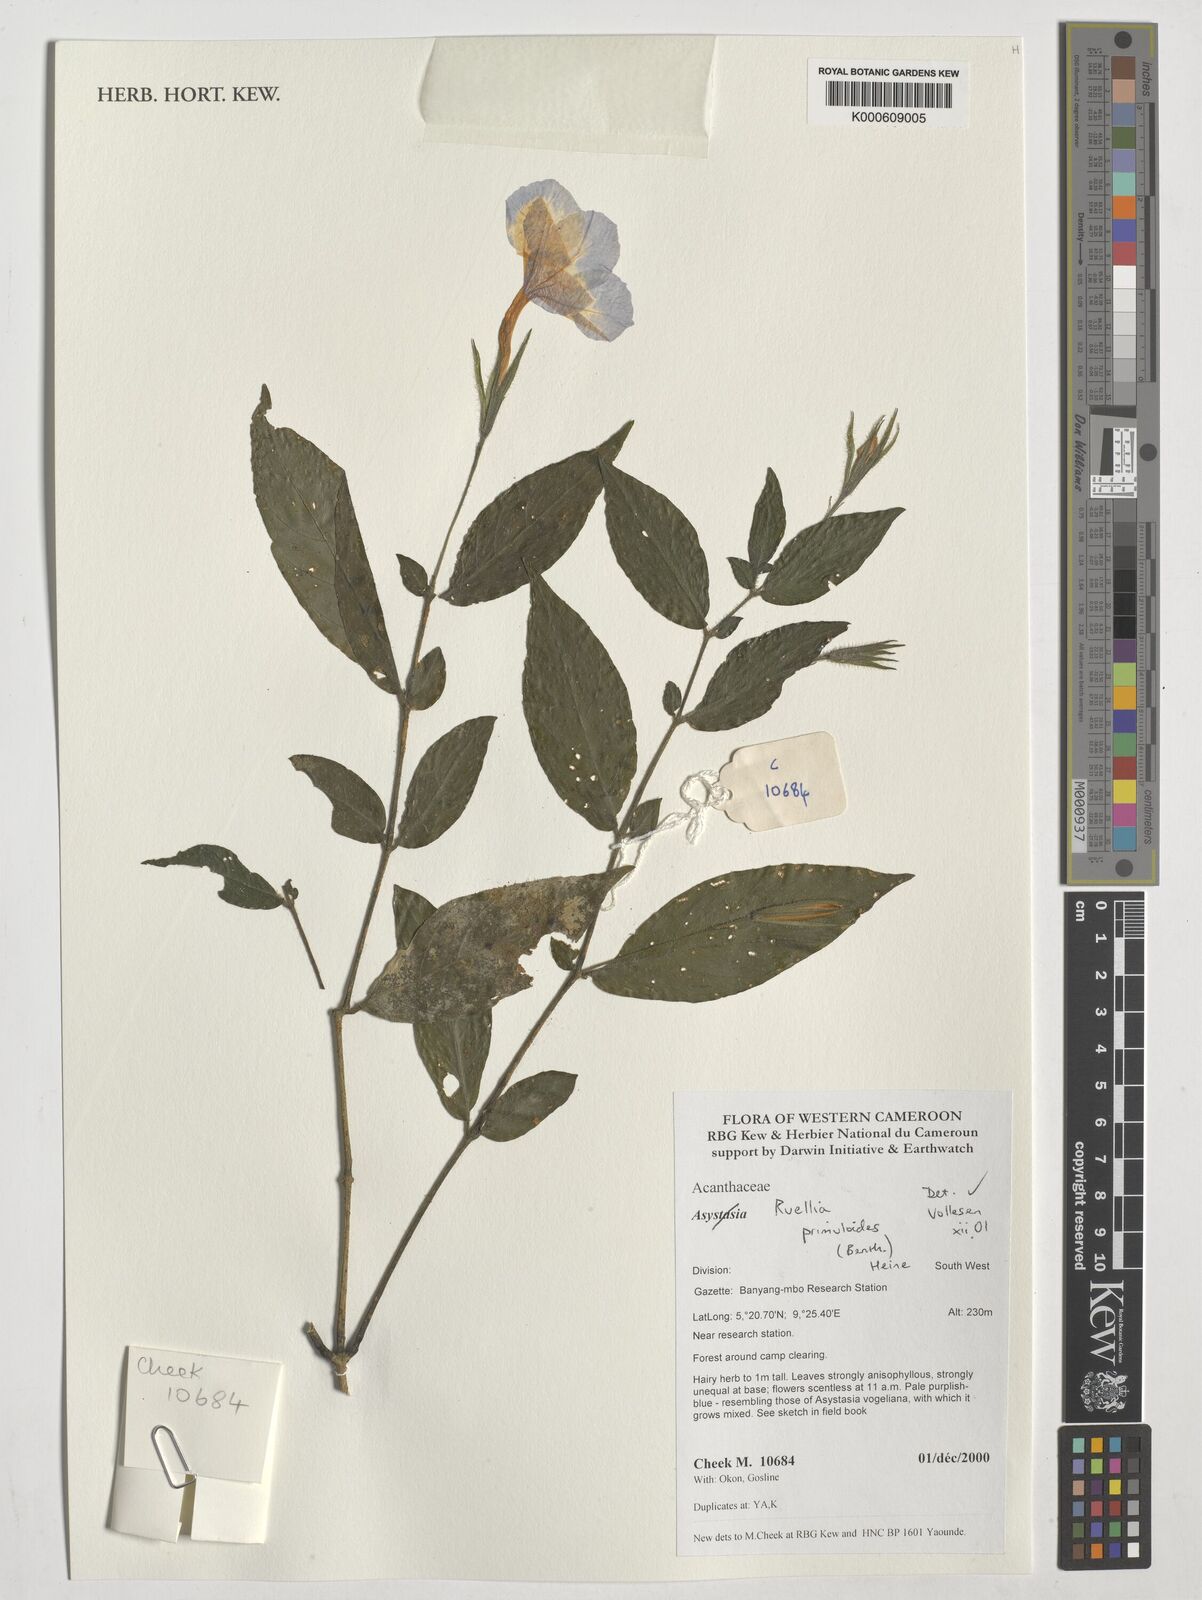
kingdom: Plantae
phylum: Tracheophyta
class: Magnoliopsida
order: Lamiales
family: Acanthaceae
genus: Ruellia
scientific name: Ruellia primuloides
